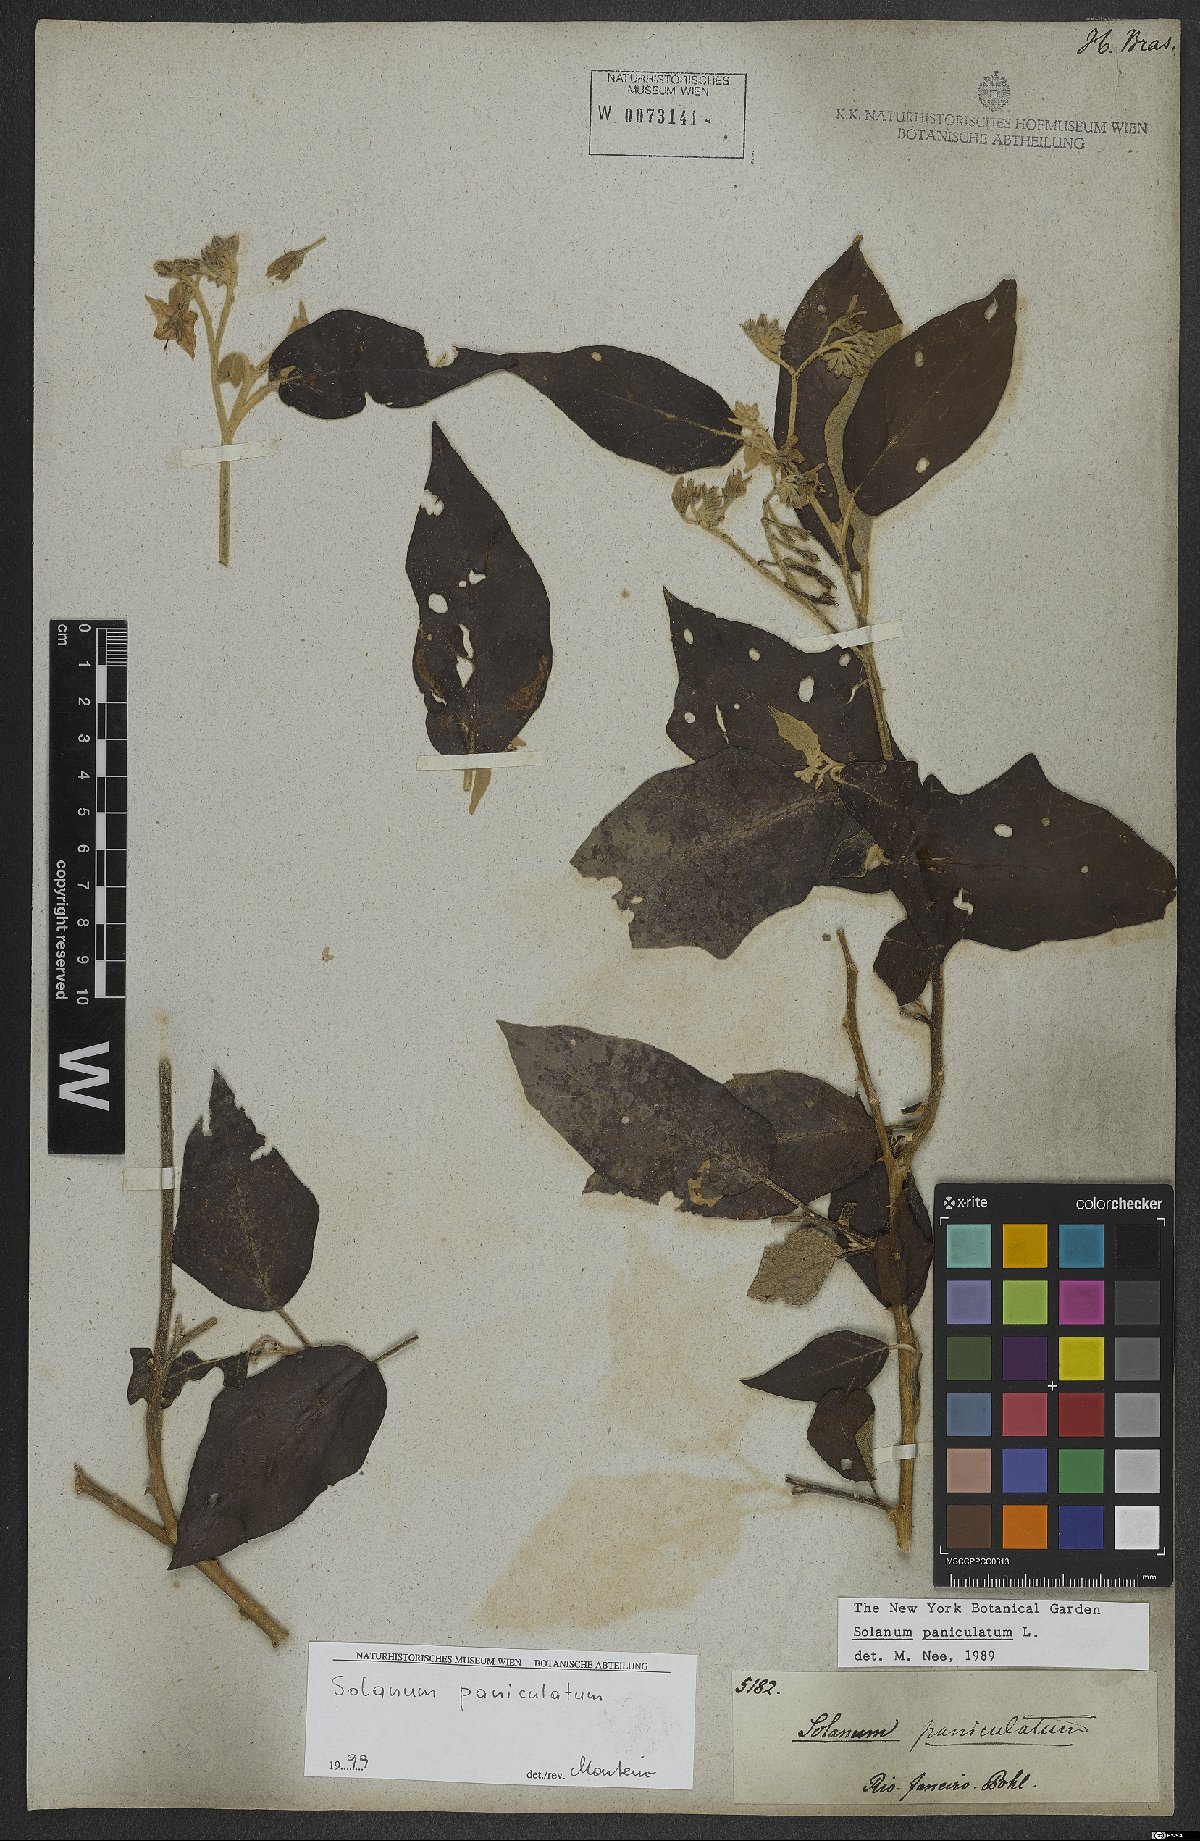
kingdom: Plantae
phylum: Tracheophyta
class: Magnoliopsida
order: Solanales
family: Solanaceae
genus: Solanum
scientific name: Solanum paniculatum
